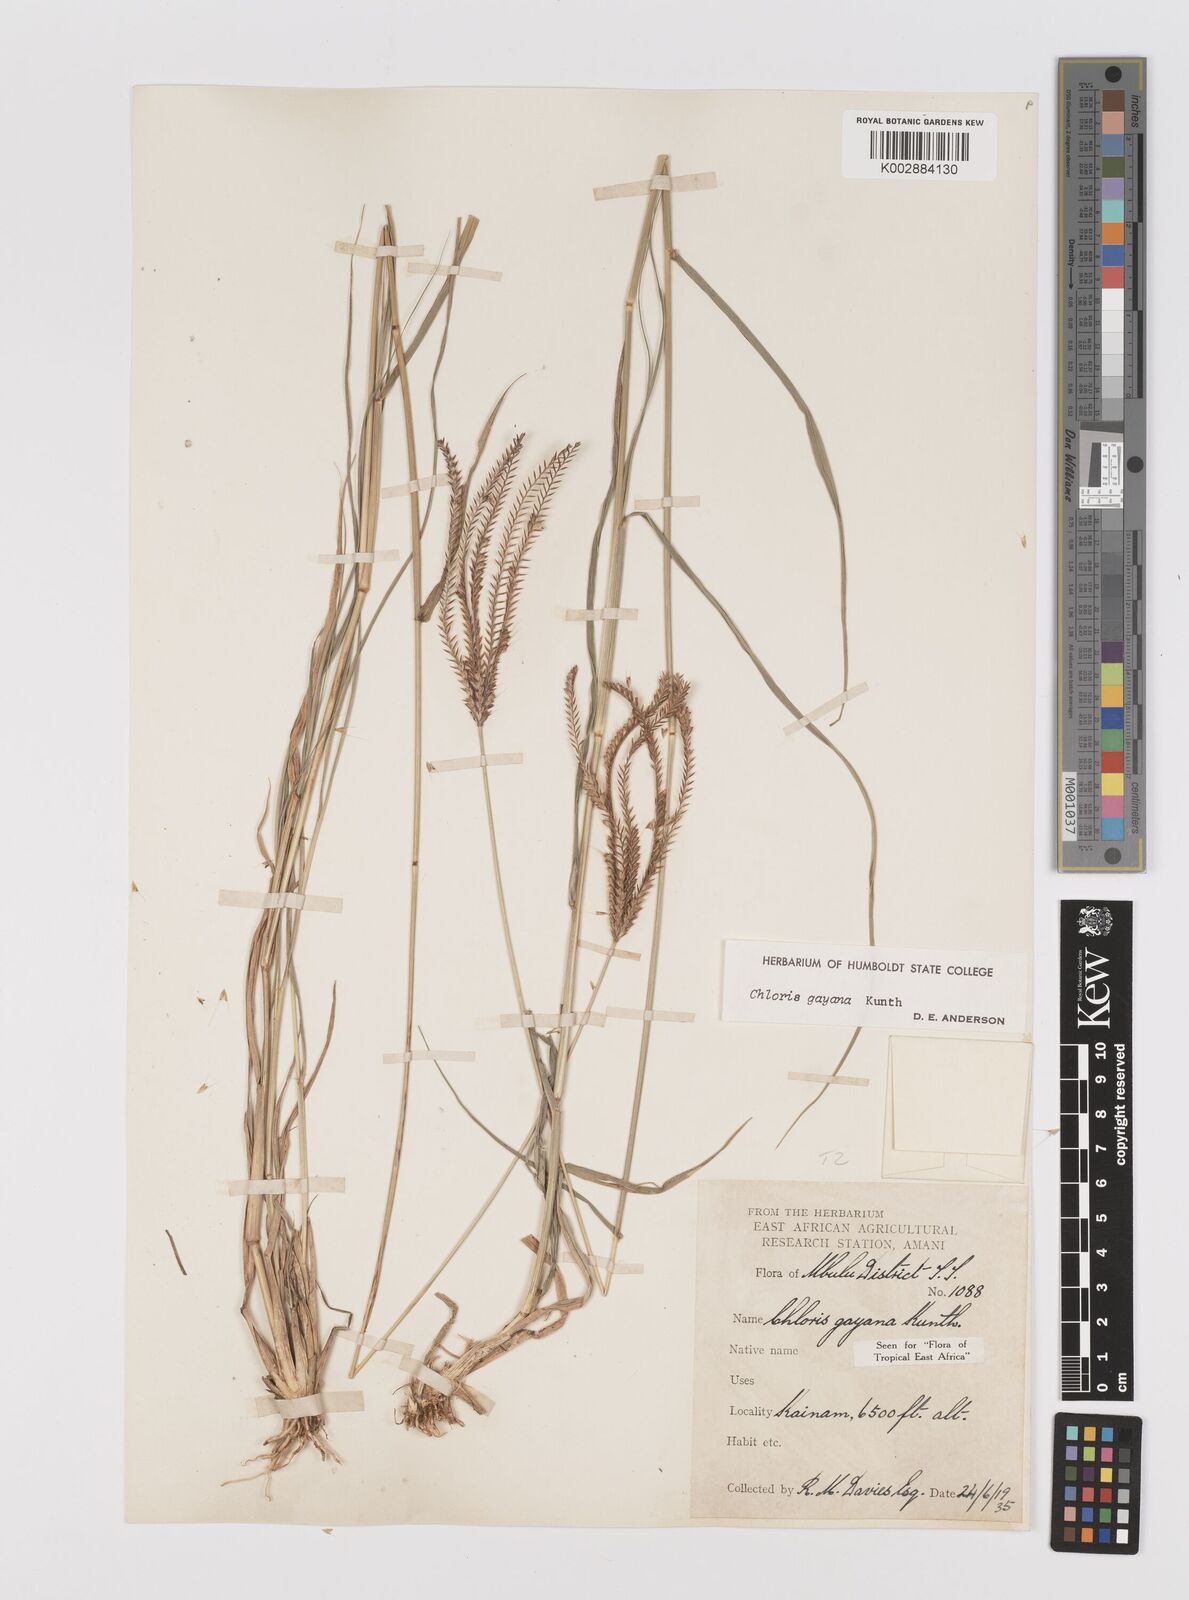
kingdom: Plantae
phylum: Tracheophyta
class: Liliopsida
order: Poales
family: Poaceae
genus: Chloris
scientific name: Chloris gayana
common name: Rhodes grass
